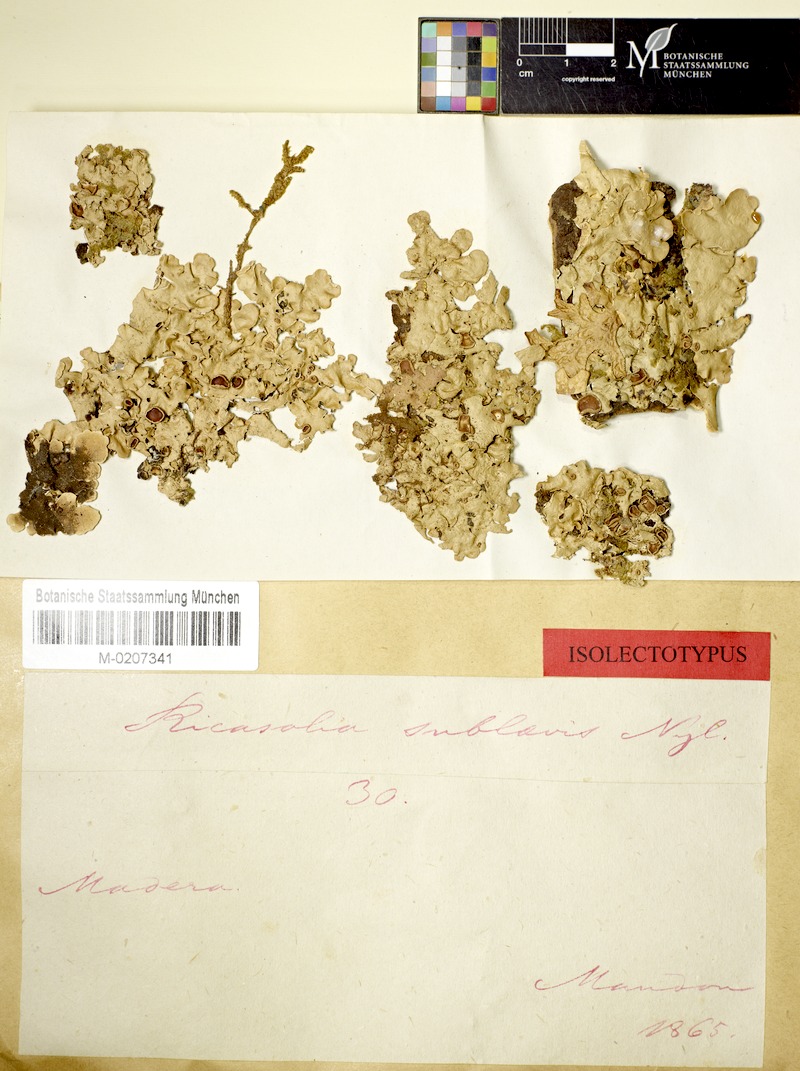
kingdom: Fungi
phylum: Ascomycota
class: Lecanoromycetes
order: Peltigerales
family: Lobariaceae
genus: Lobaria
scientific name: Lobaria sublaevis
